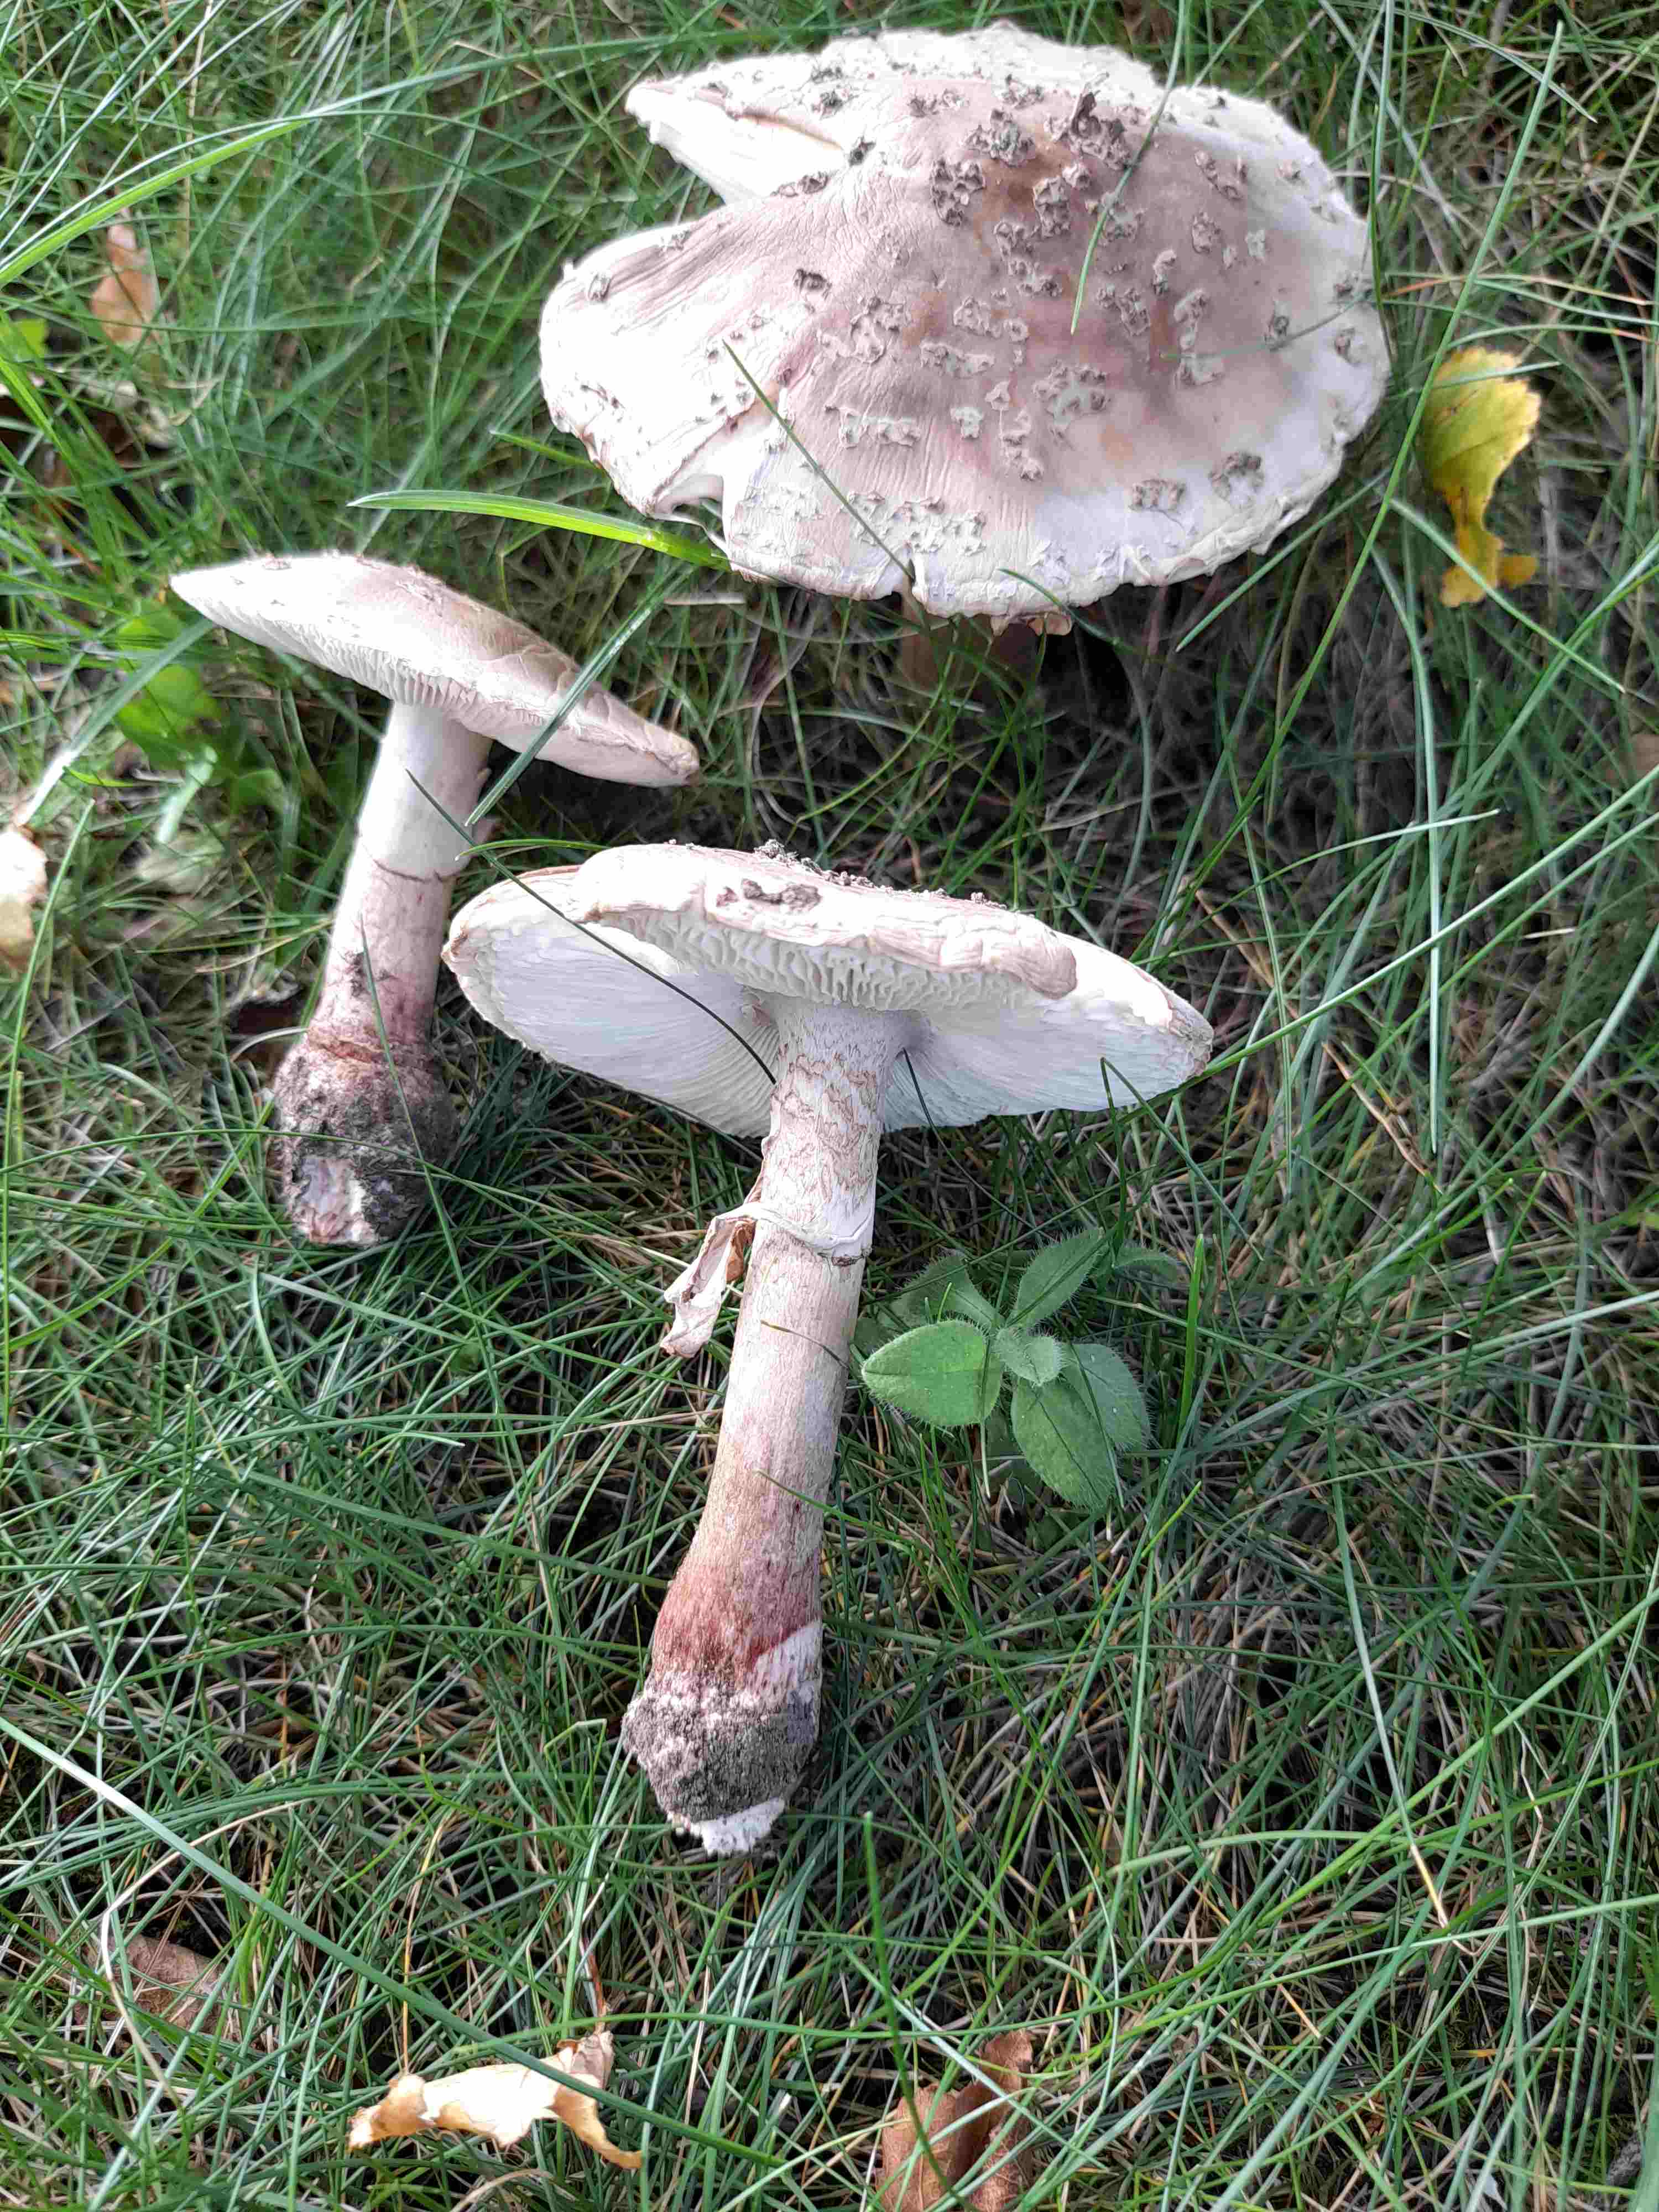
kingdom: Fungi
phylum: Basidiomycota
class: Agaricomycetes
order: Agaricales
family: Amanitaceae
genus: Amanita
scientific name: Amanita rubescens
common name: rødmende fluesvamp
